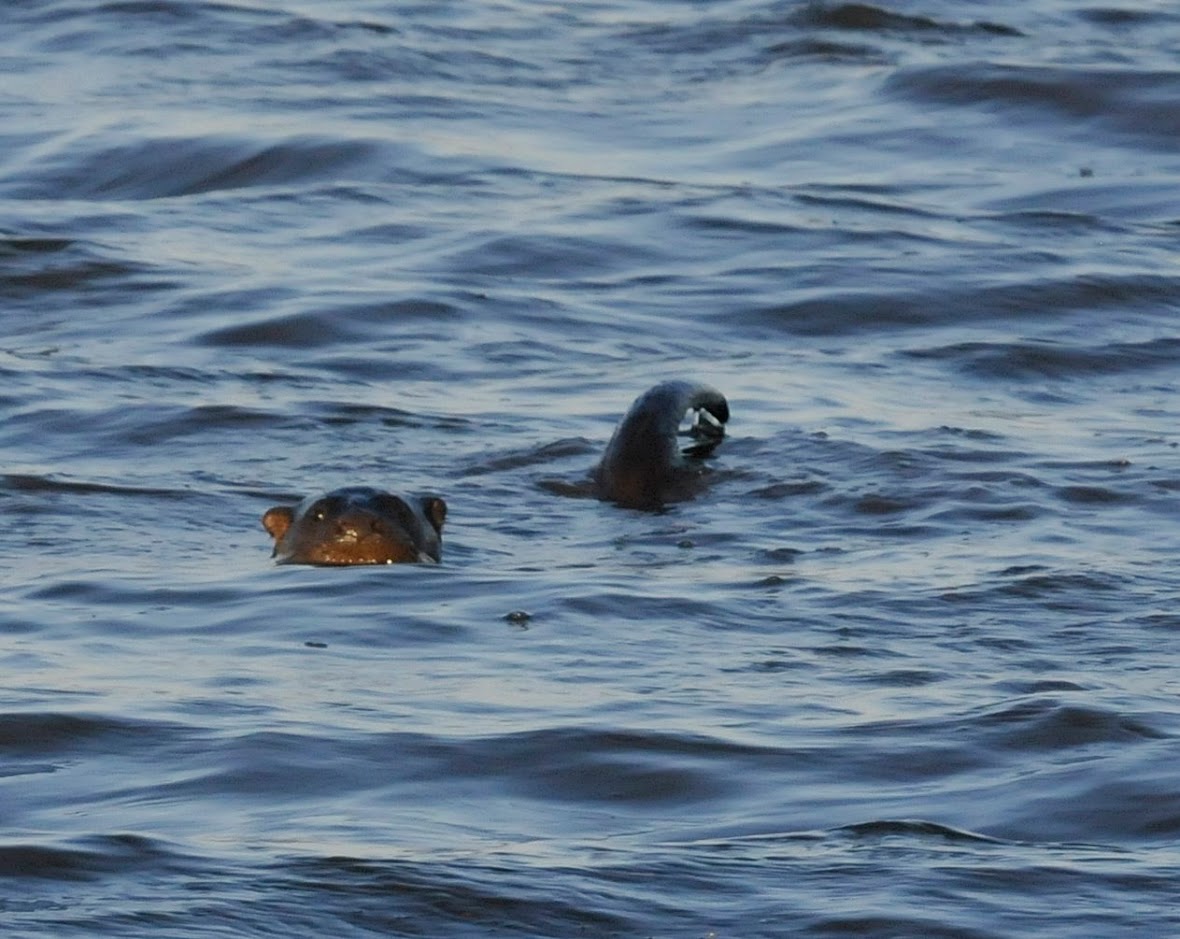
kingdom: Animalia
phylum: Chordata
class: Mammalia
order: Carnivora
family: Mustelidae
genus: Lutra
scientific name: Lutra lutra
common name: Odder
